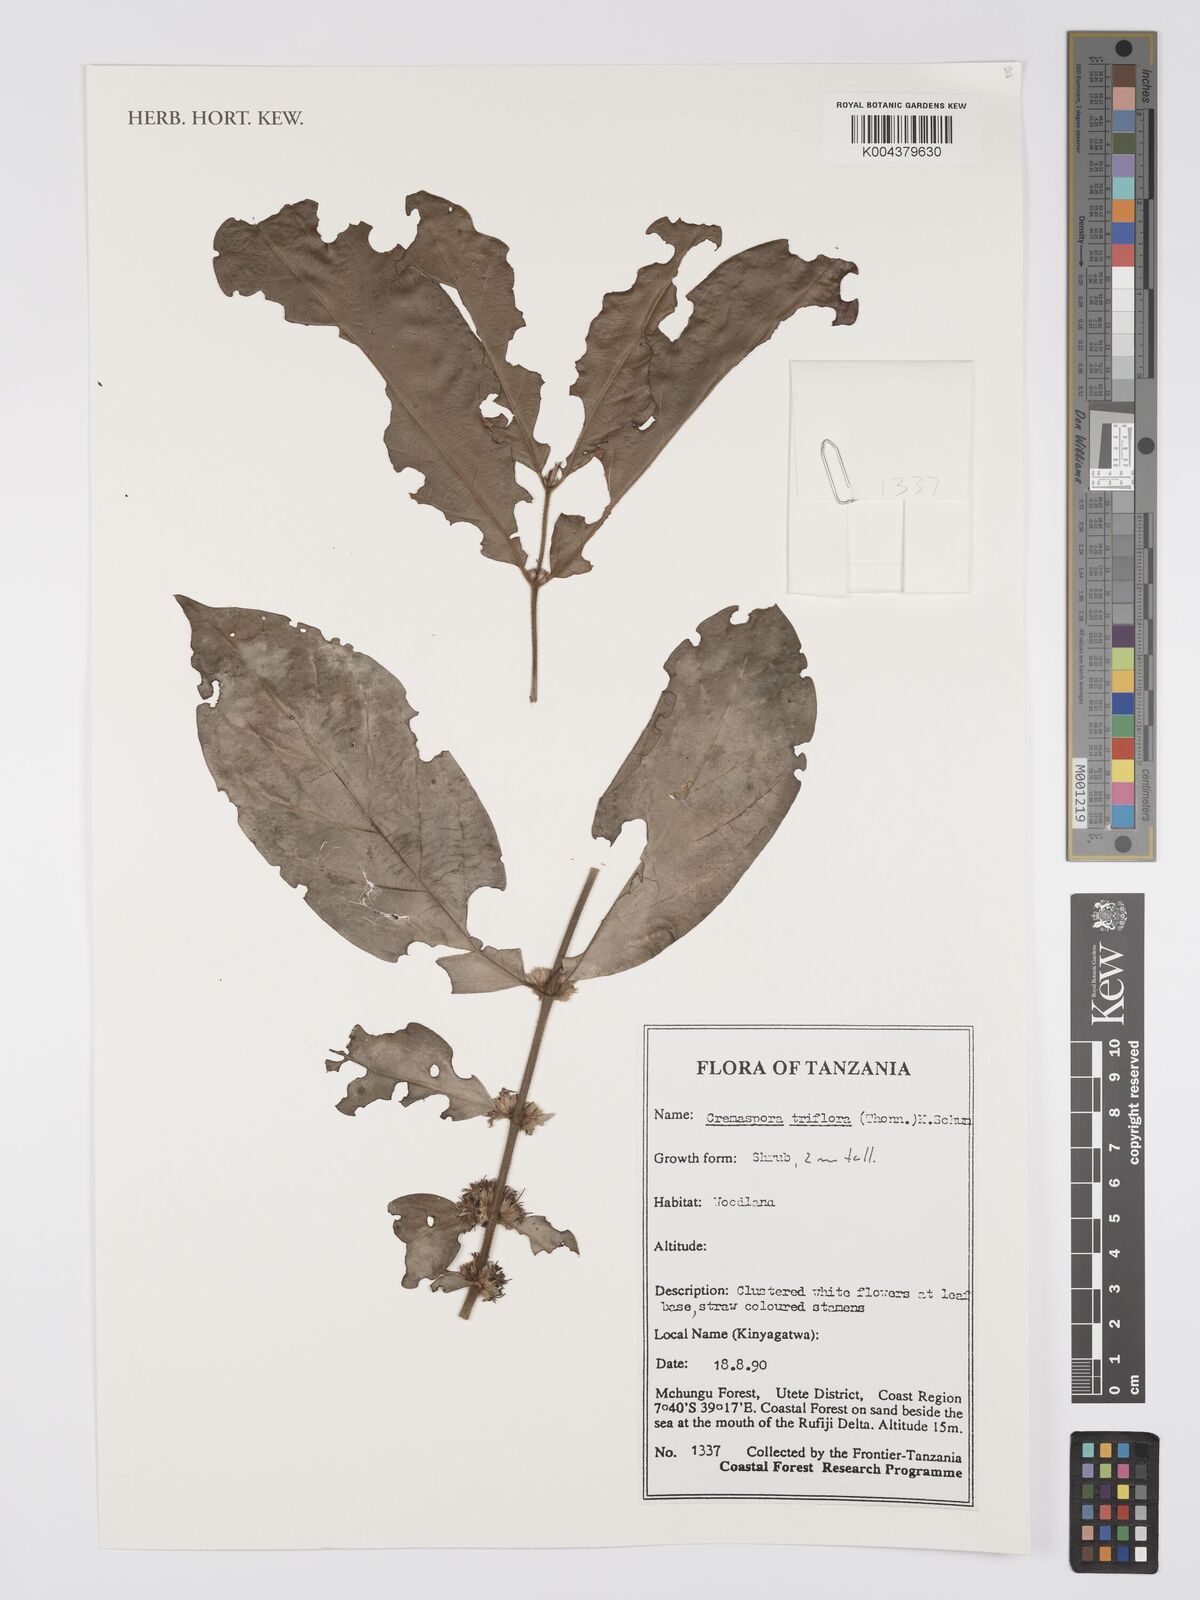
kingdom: Plantae
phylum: Tracheophyta
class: Magnoliopsida
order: Gentianales
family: Rubiaceae
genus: Cremaspora
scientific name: Cremaspora triflora
